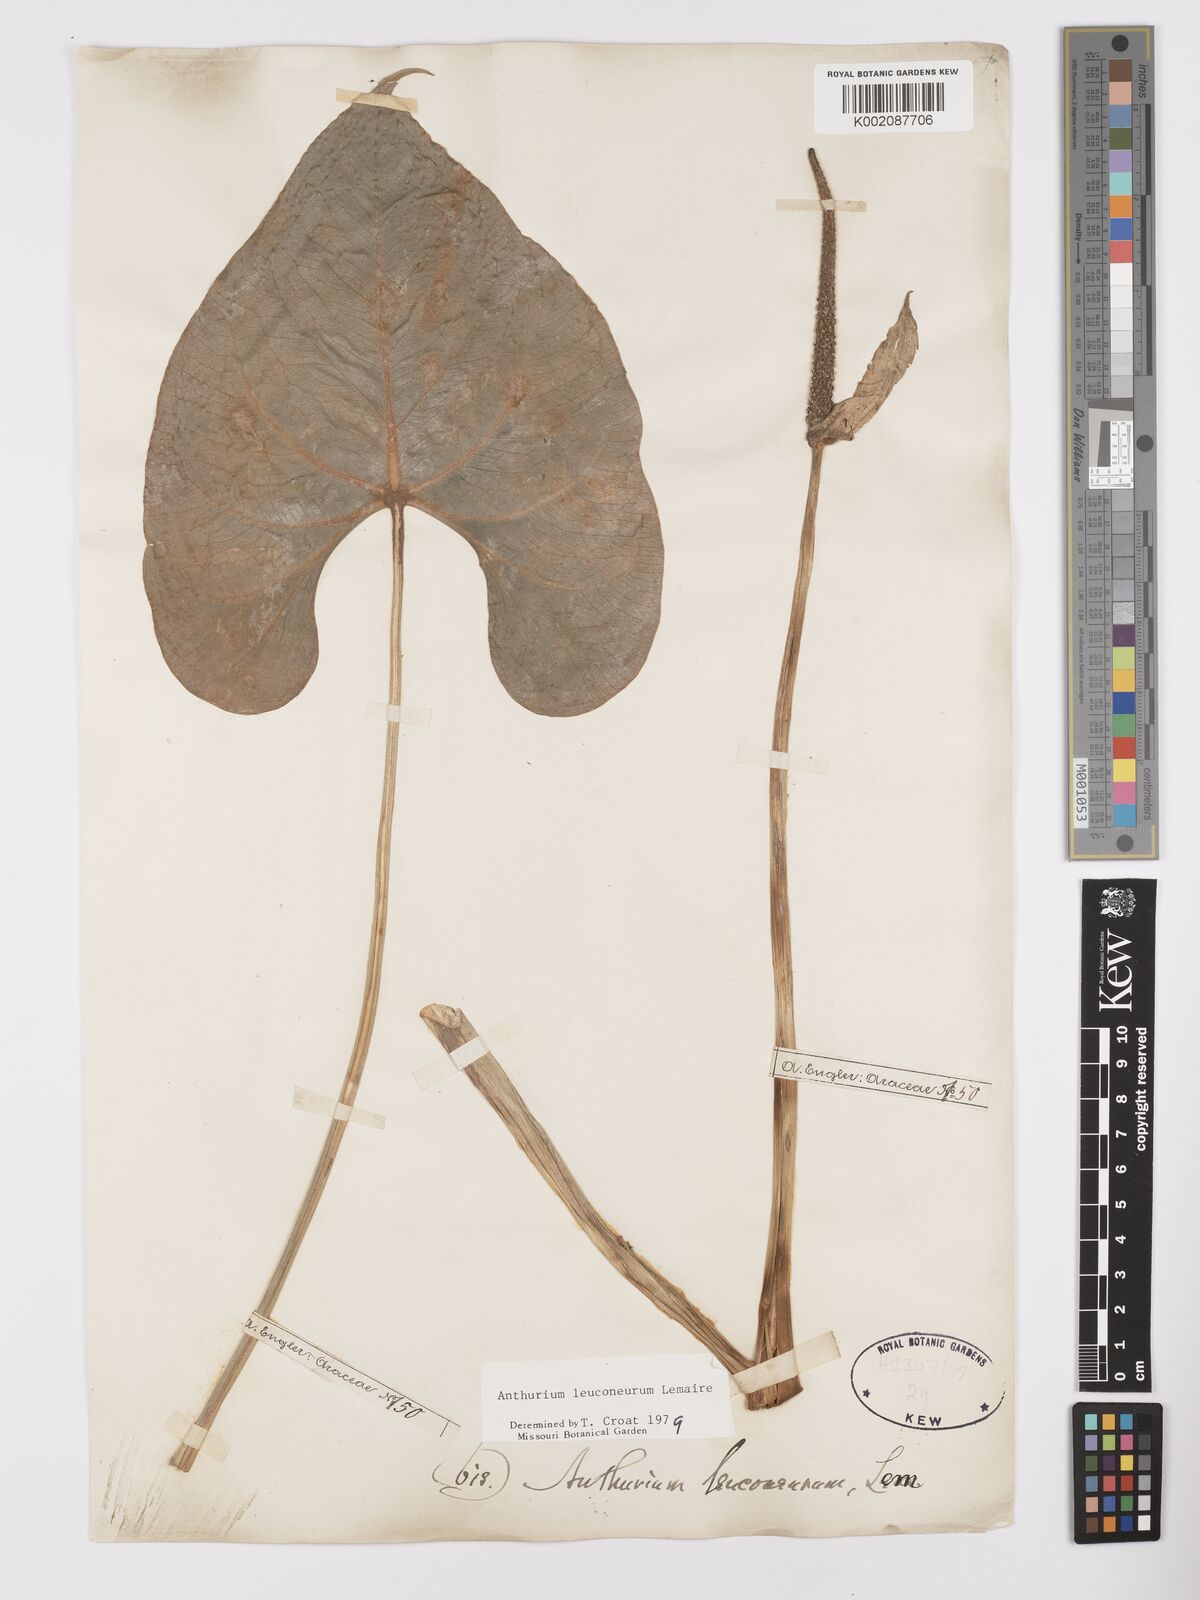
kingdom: Plantae
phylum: Tracheophyta
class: Liliopsida
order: Alismatales
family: Araceae
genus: Anthurium
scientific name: Anthurium leuconeurum
